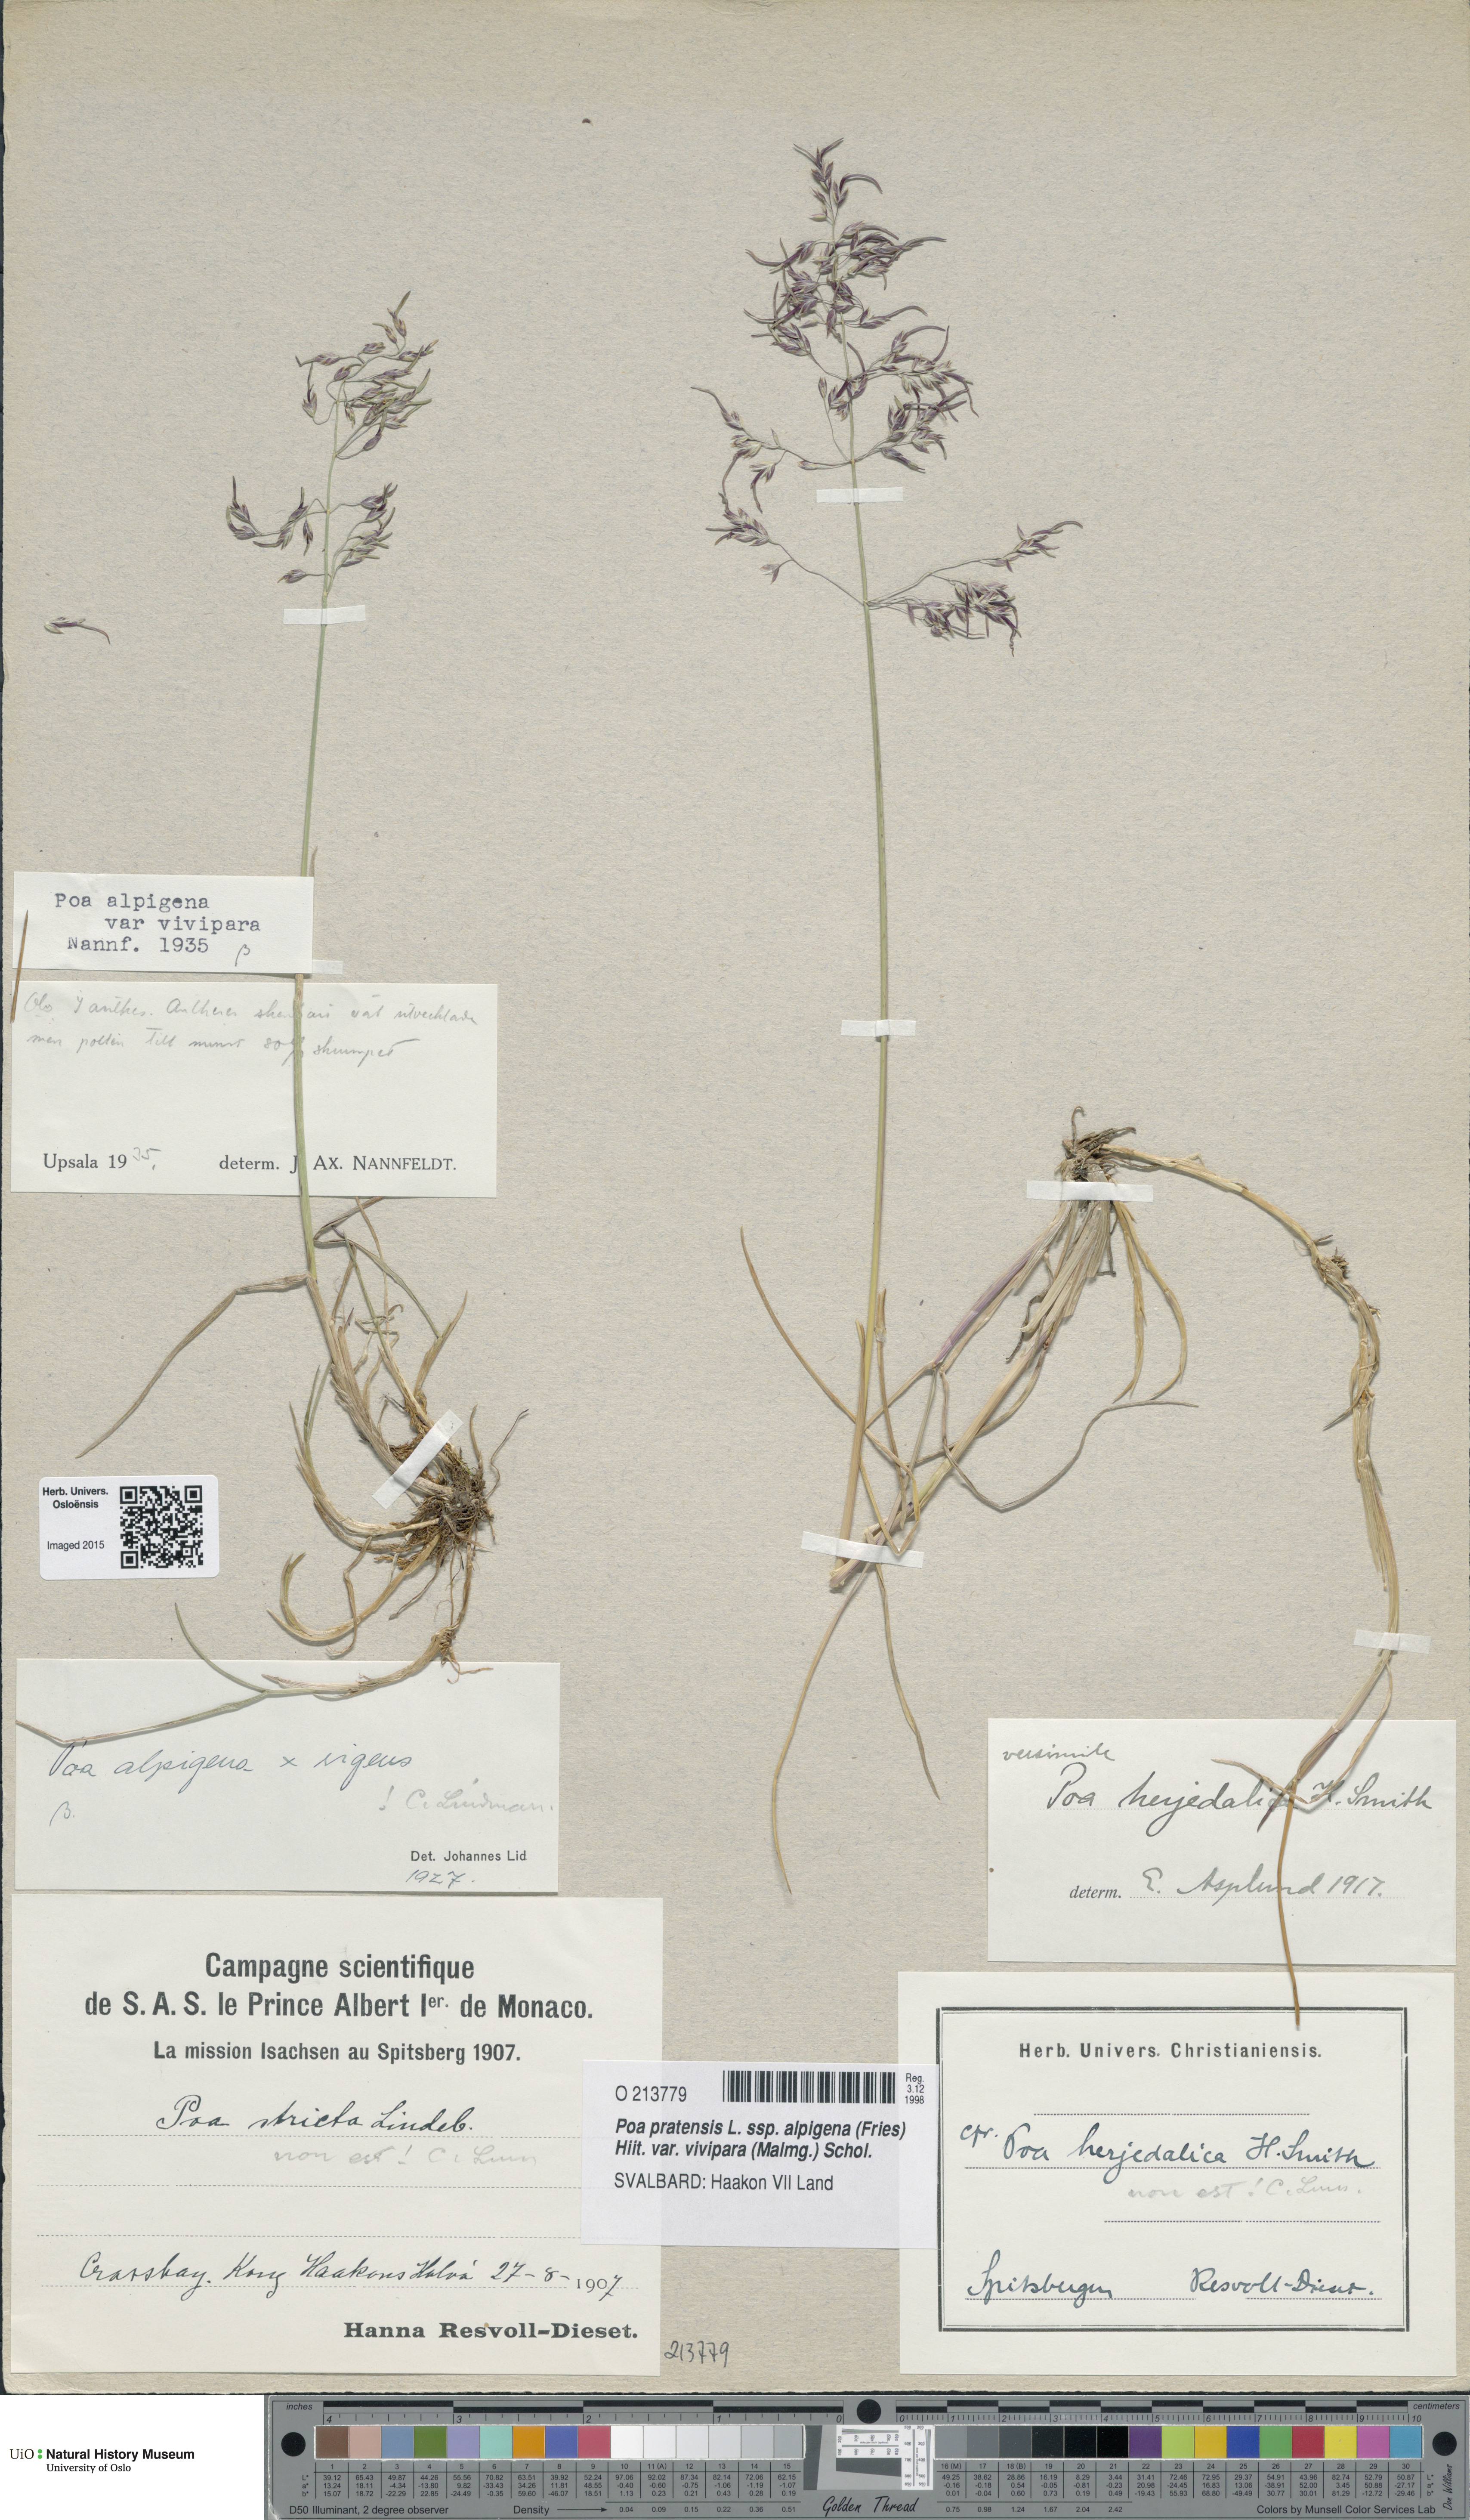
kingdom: Plantae
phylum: Tracheophyta
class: Liliopsida
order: Poales
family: Poaceae
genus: Poa
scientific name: Poa arctica
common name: Arctic bluegrass
